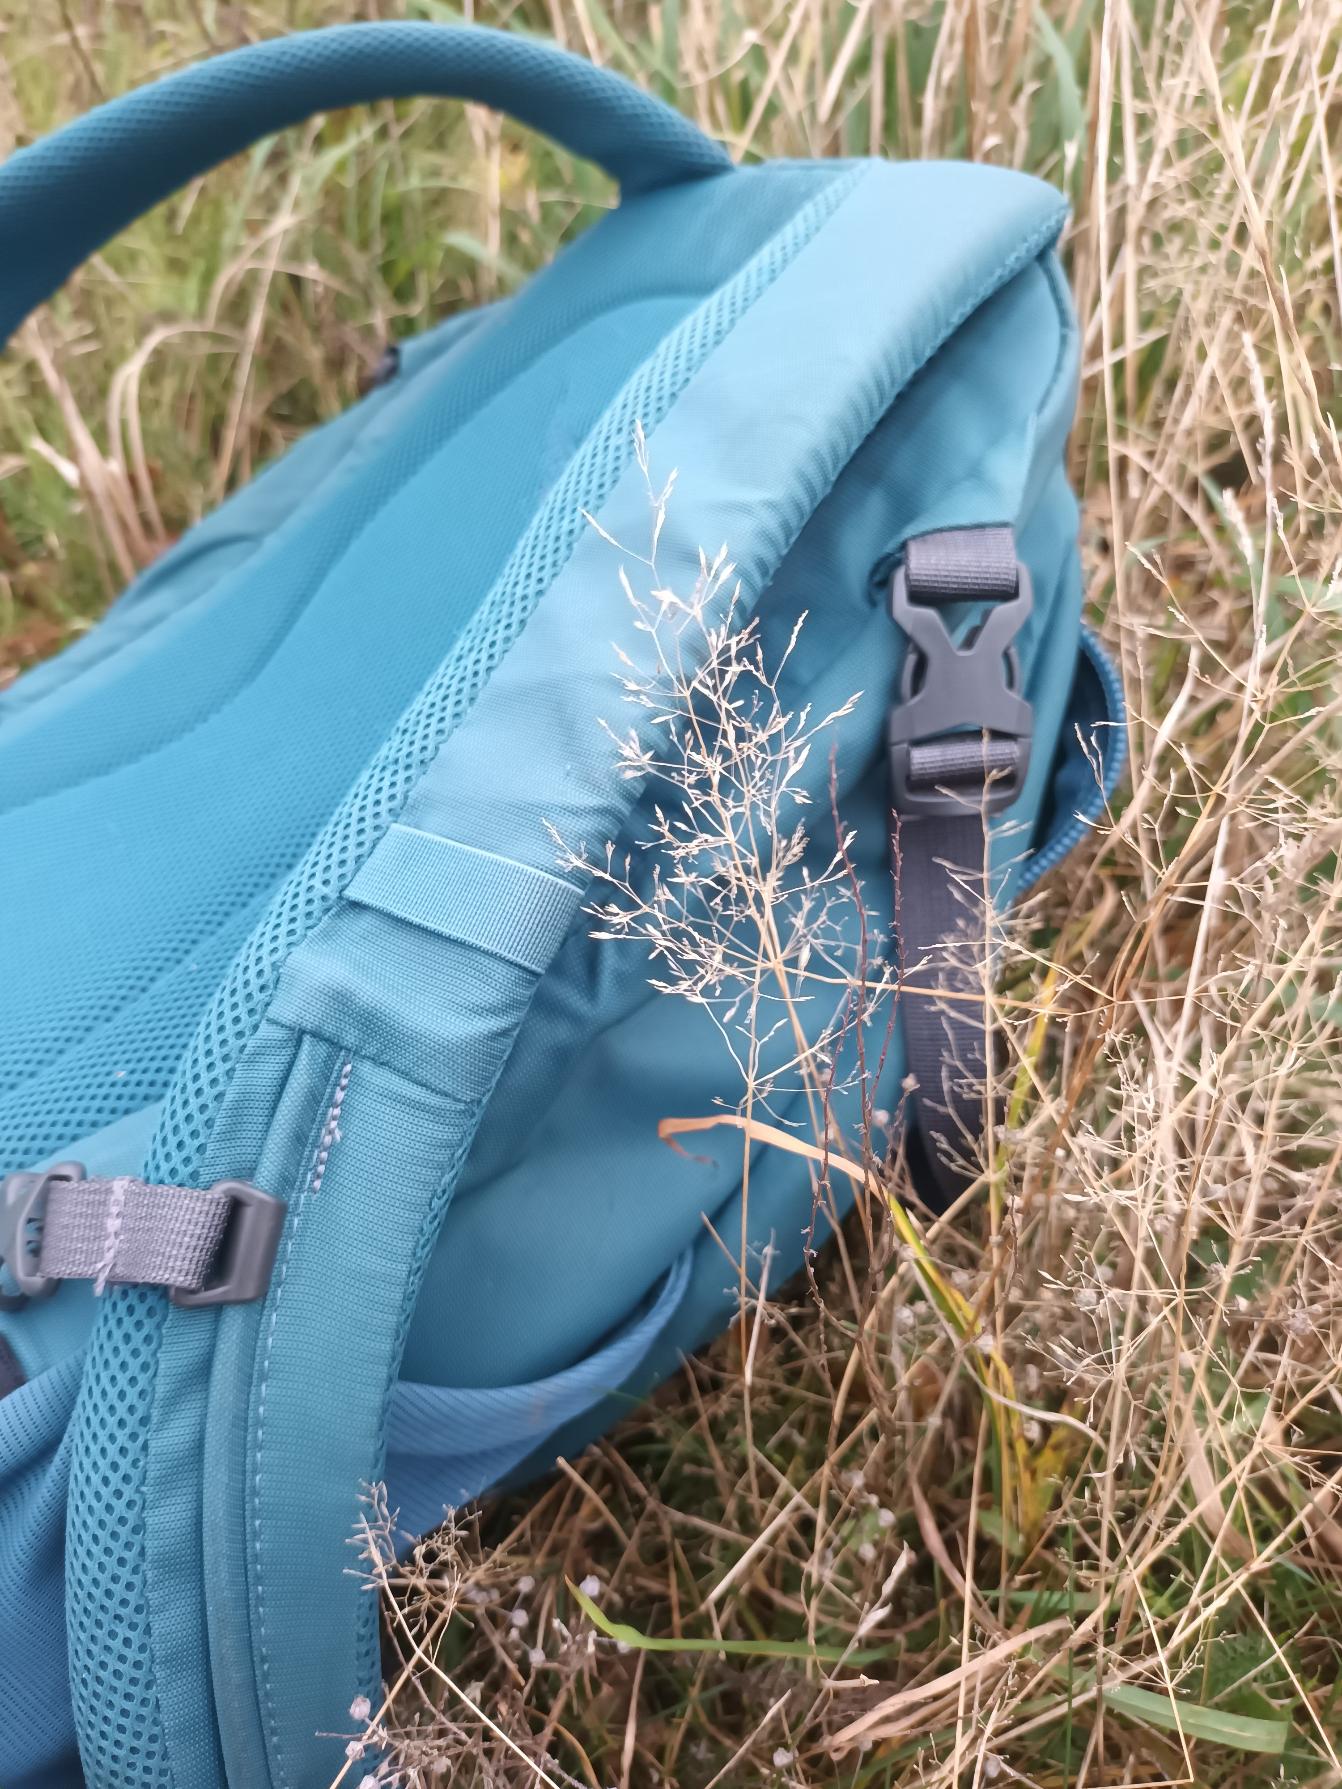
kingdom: Plantae
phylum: Tracheophyta
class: Liliopsida
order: Poales
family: Poaceae
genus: Agrostis
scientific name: Agrostis capillaris
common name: Almindelig hvene
